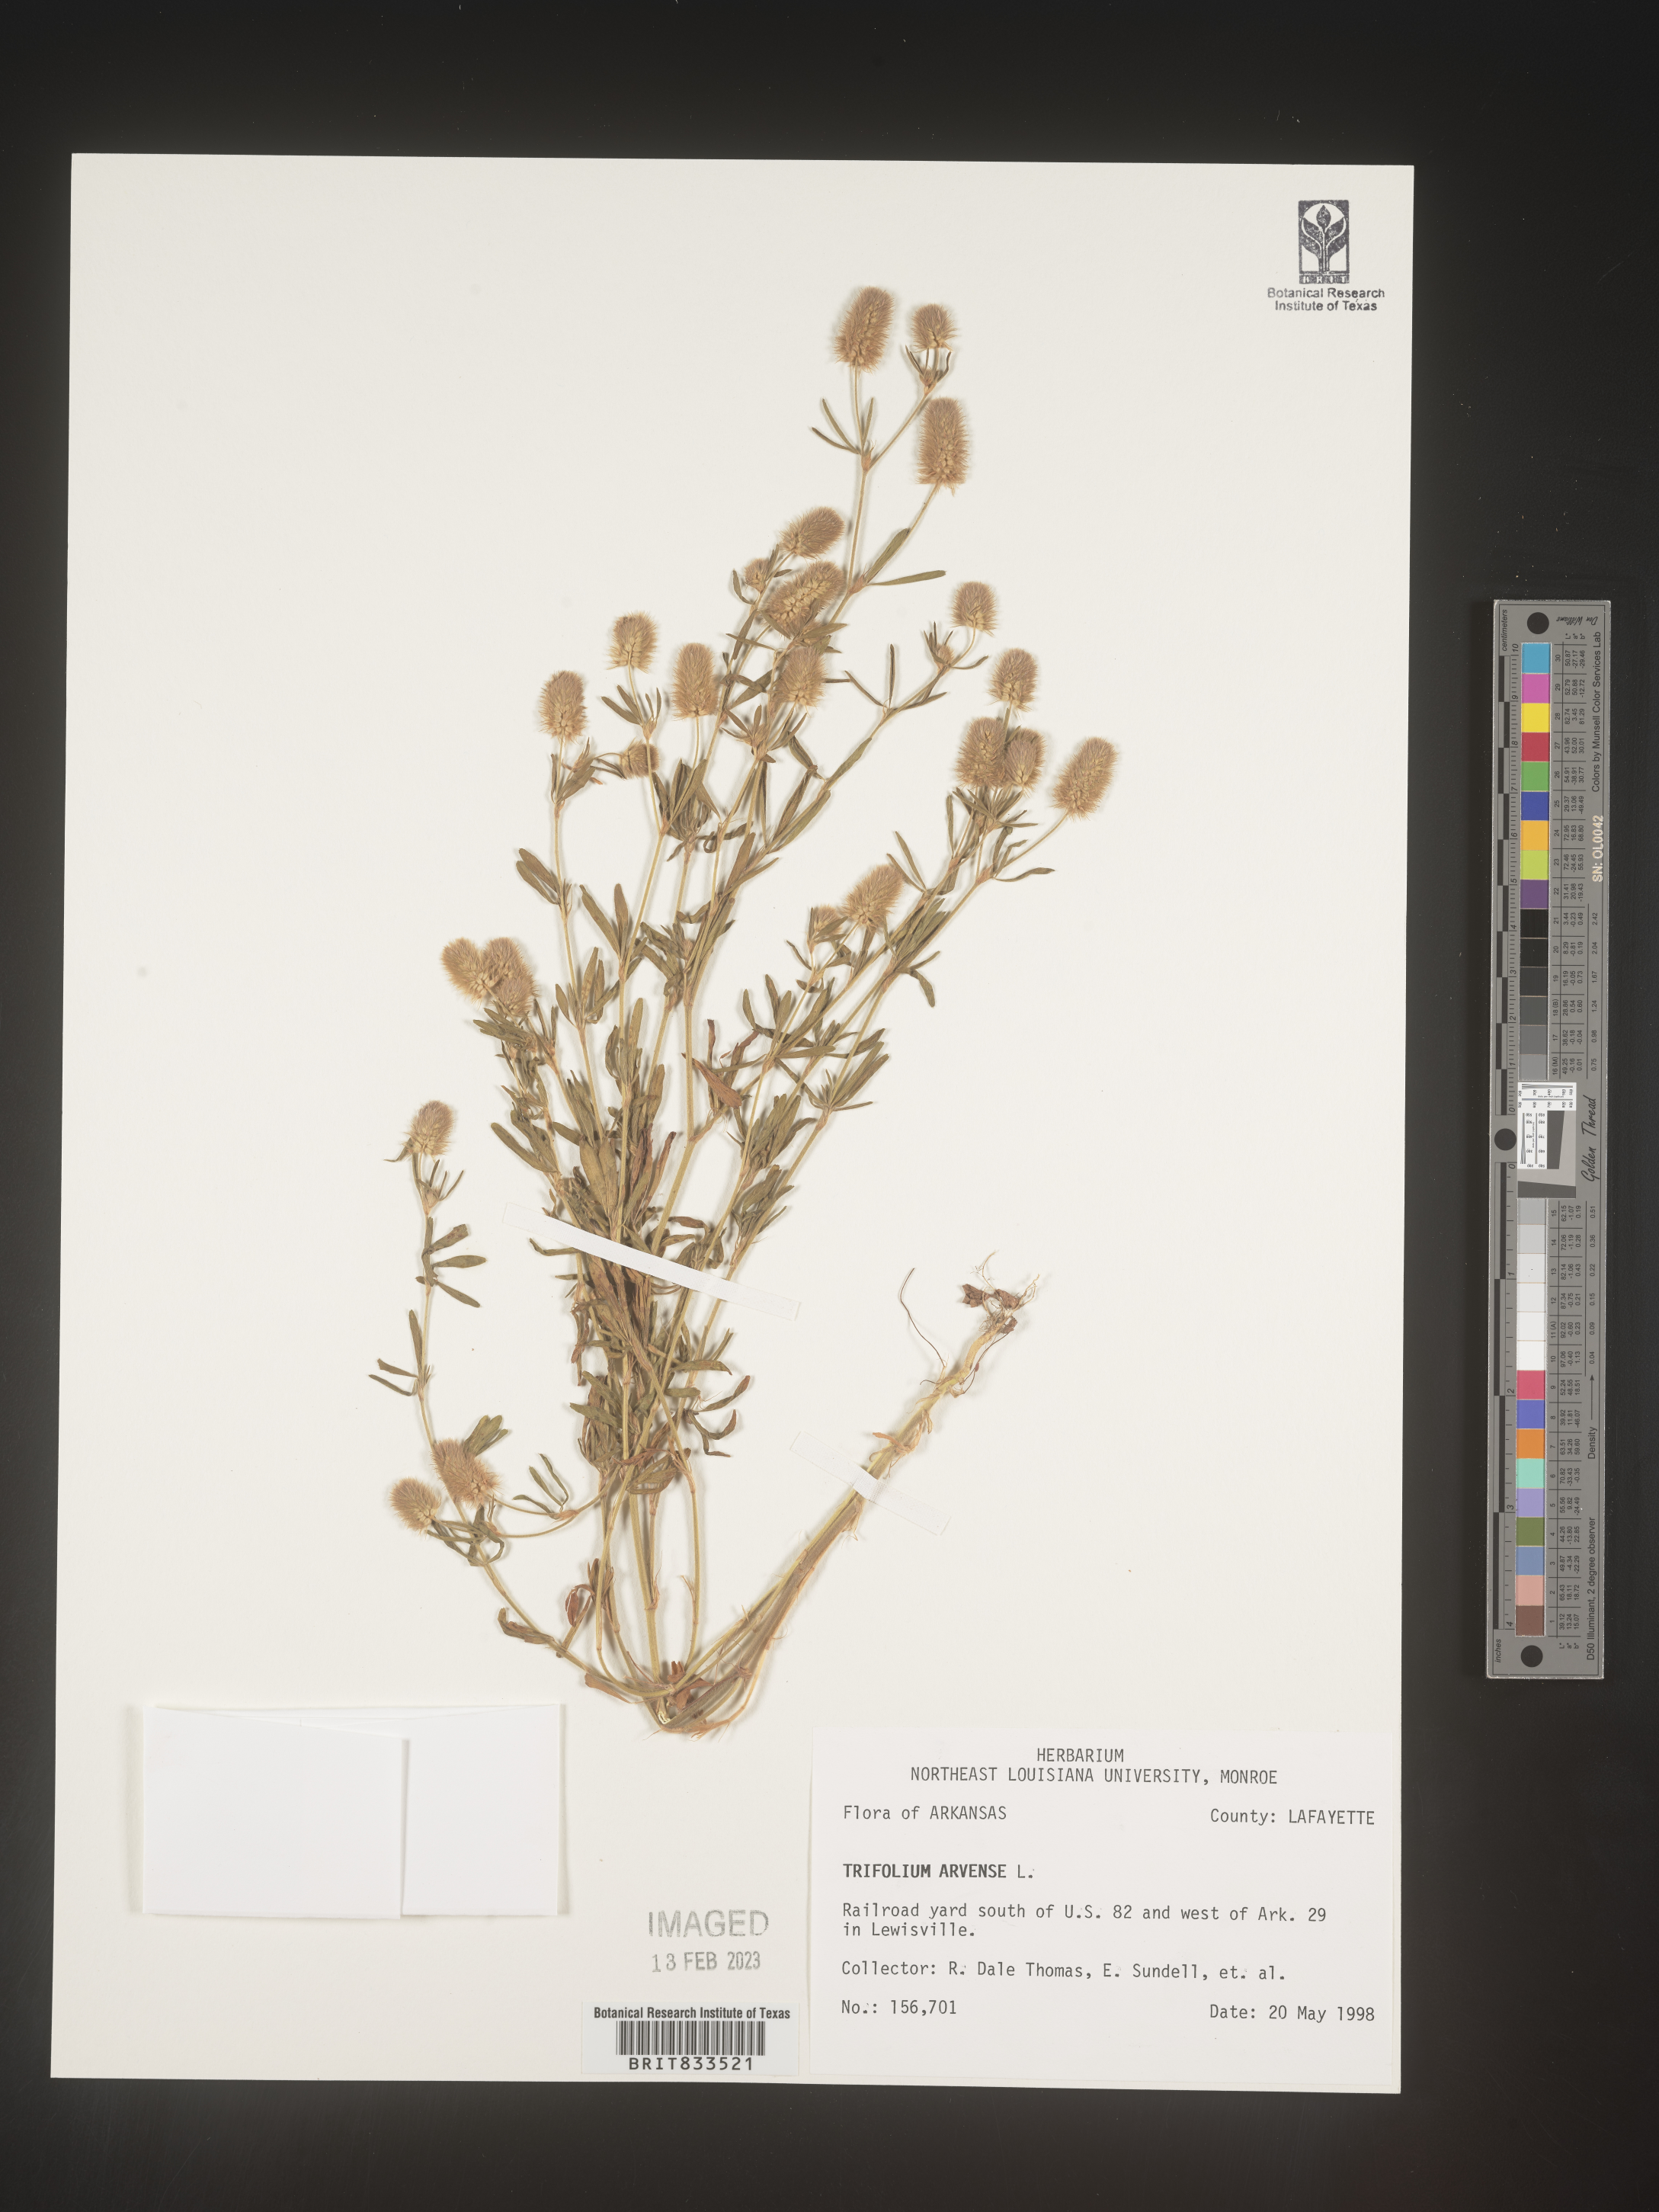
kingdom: Plantae
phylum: Tracheophyta
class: Magnoliopsida
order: Fabales
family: Fabaceae
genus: Trifolium
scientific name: Trifolium arvense
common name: Hare's-foot clover
